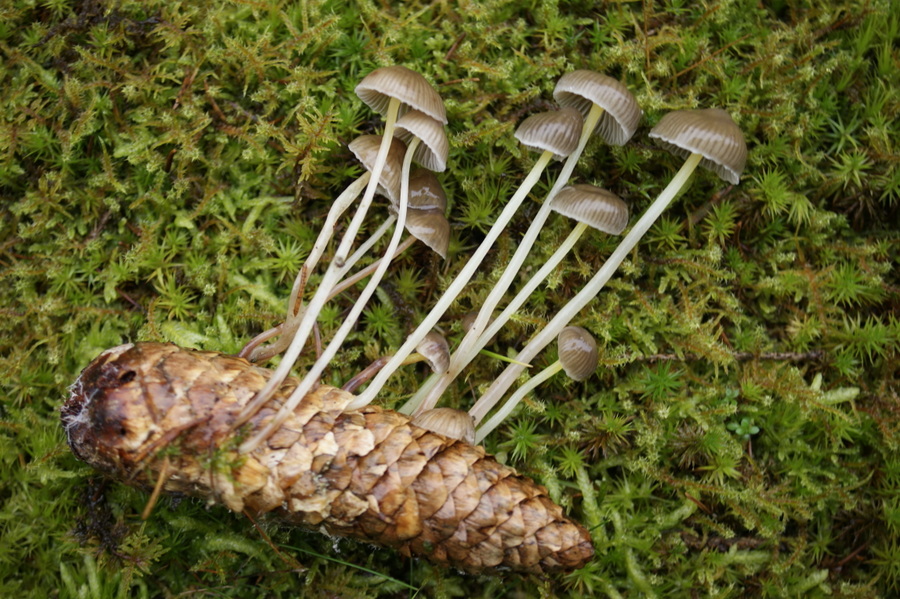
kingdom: Fungi
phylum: Basidiomycota
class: Agaricomycetes
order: Agaricales
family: Mycenaceae
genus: Mycena
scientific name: Mycena epipterygia
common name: gulstokket huesvamp
